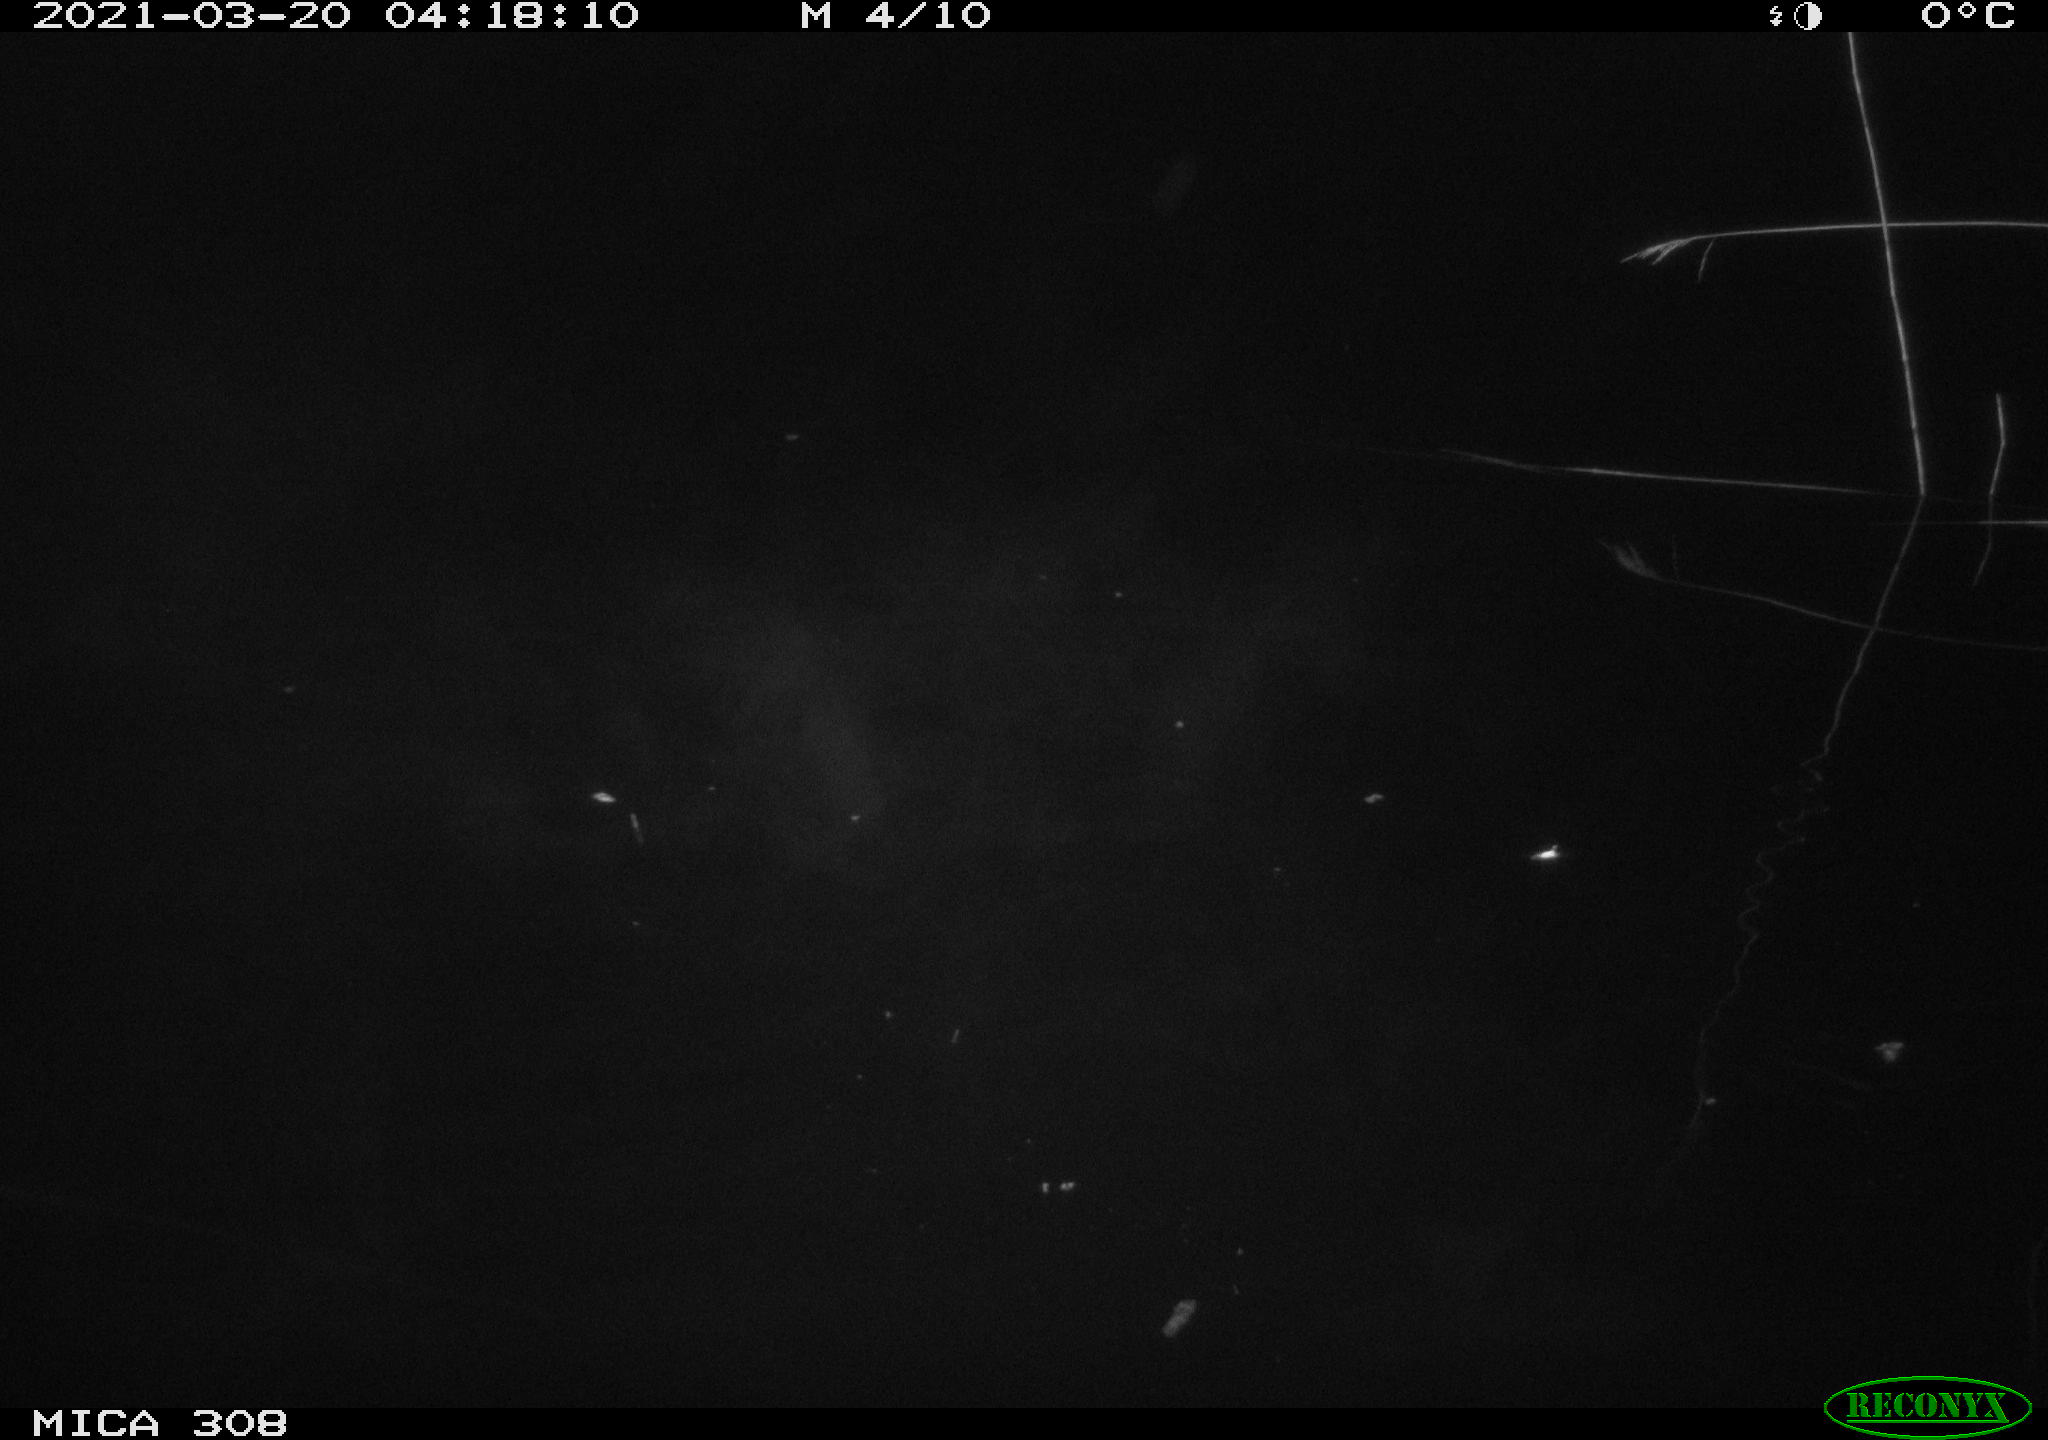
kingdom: Animalia
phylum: Chordata
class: Mammalia
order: Rodentia
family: Cricetidae
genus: Ondatra
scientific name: Ondatra zibethicus
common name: Muskrat
